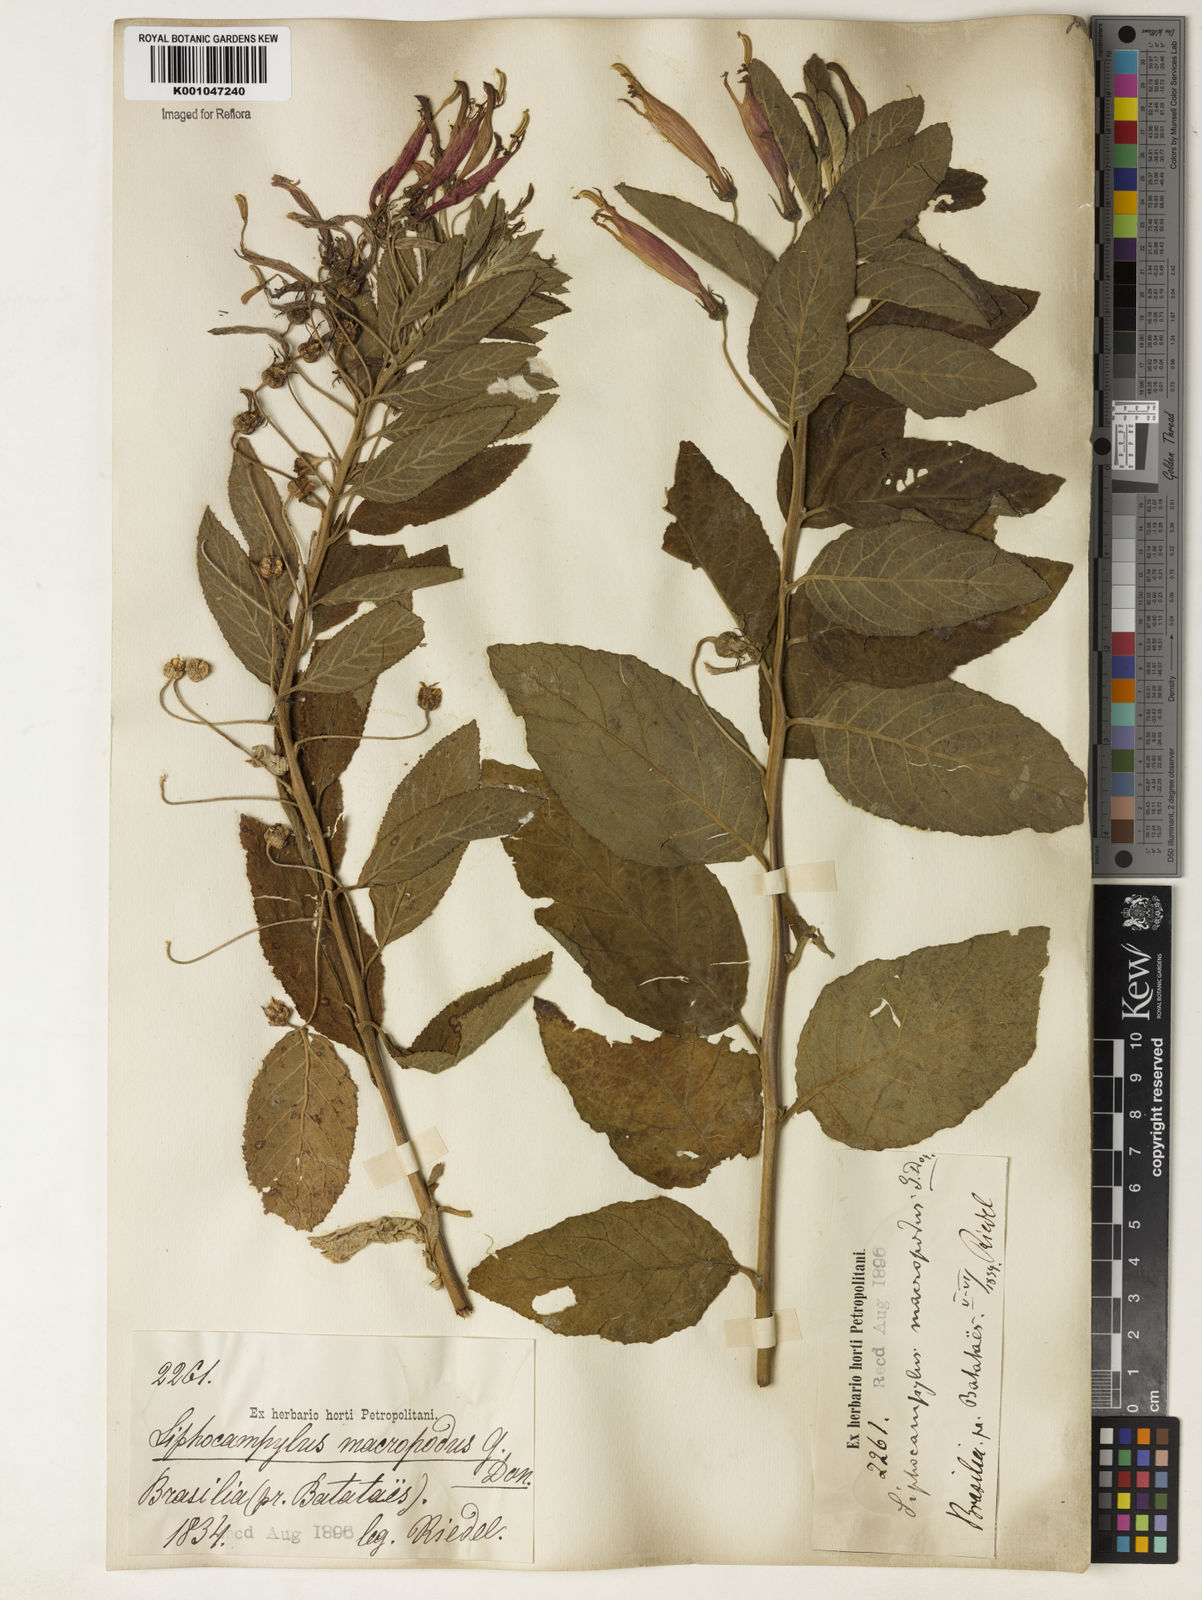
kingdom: Plantae
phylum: Tracheophyta
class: Magnoliopsida
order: Asterales
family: Campanulaceae
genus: Siphocampylus
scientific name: Siphocampylus macropodus
